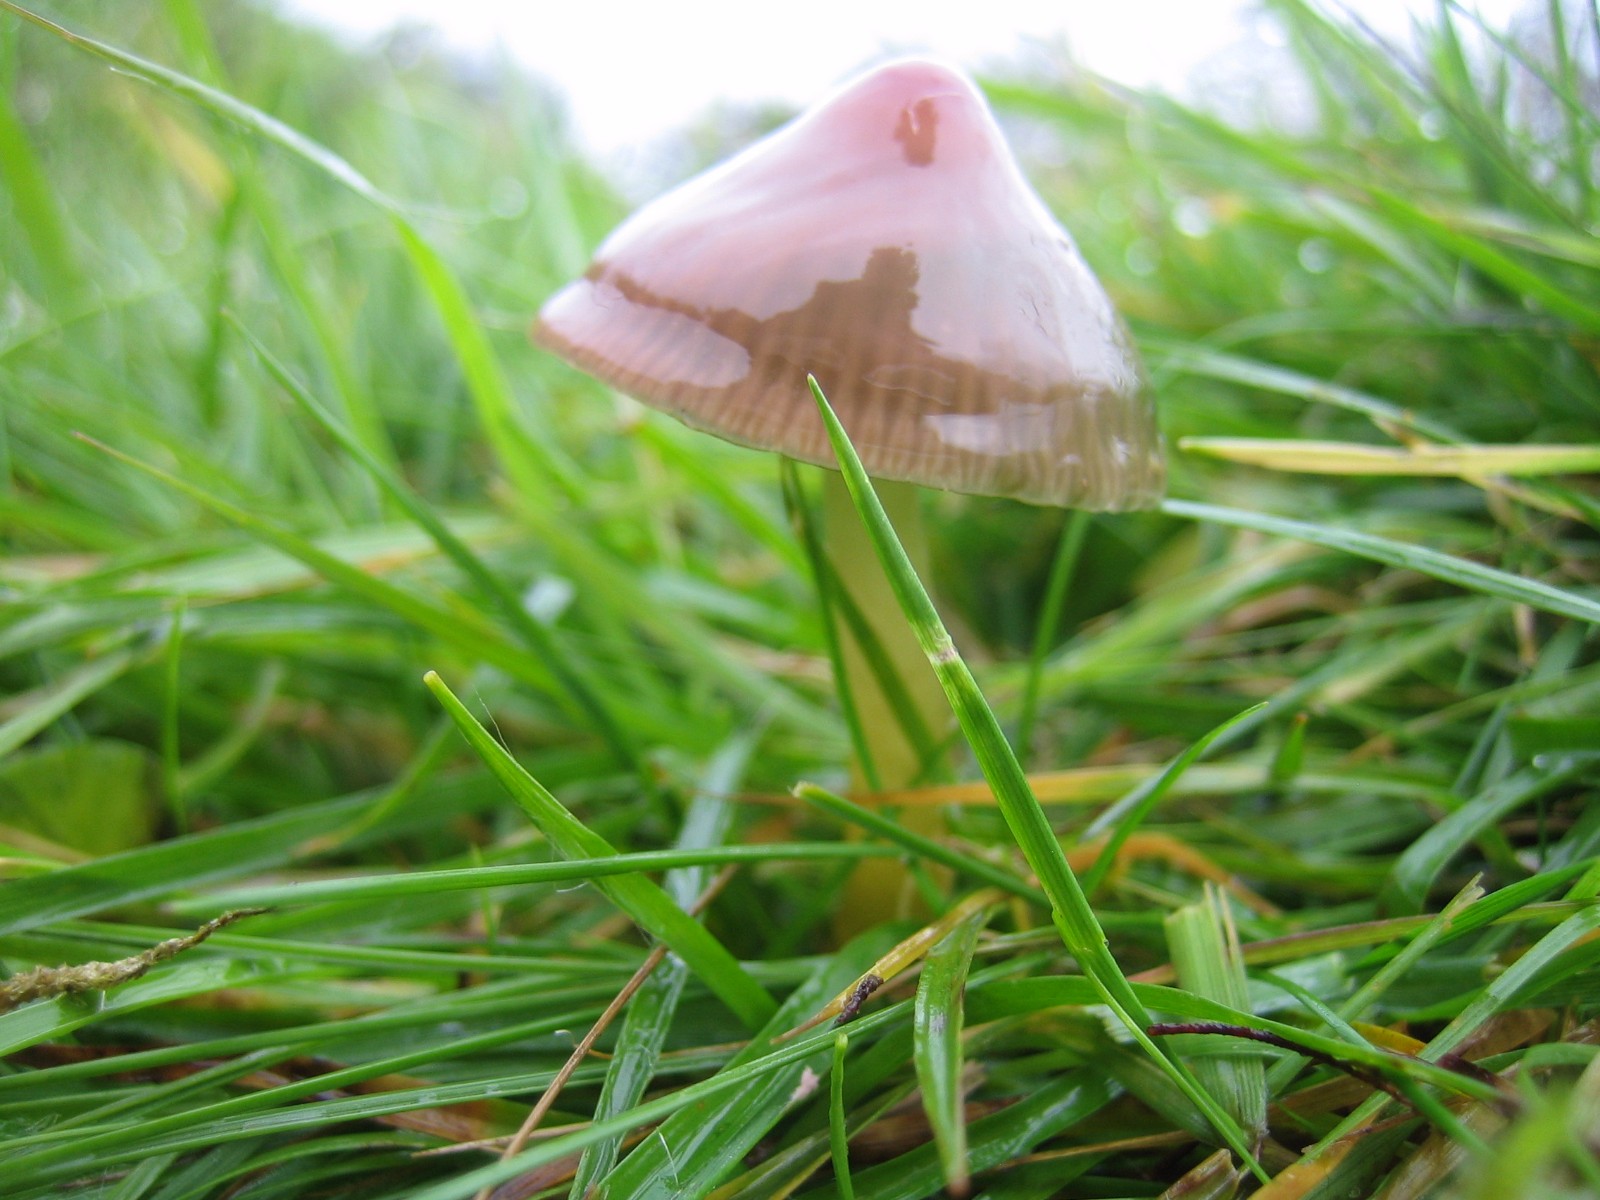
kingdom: Fungi
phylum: Basidiomycota
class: Agaricomycetes
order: Agaricales
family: Hygrophoraceae
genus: Gliophorus
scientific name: Gliophorus psittacinus
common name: papegøje-vokshat
